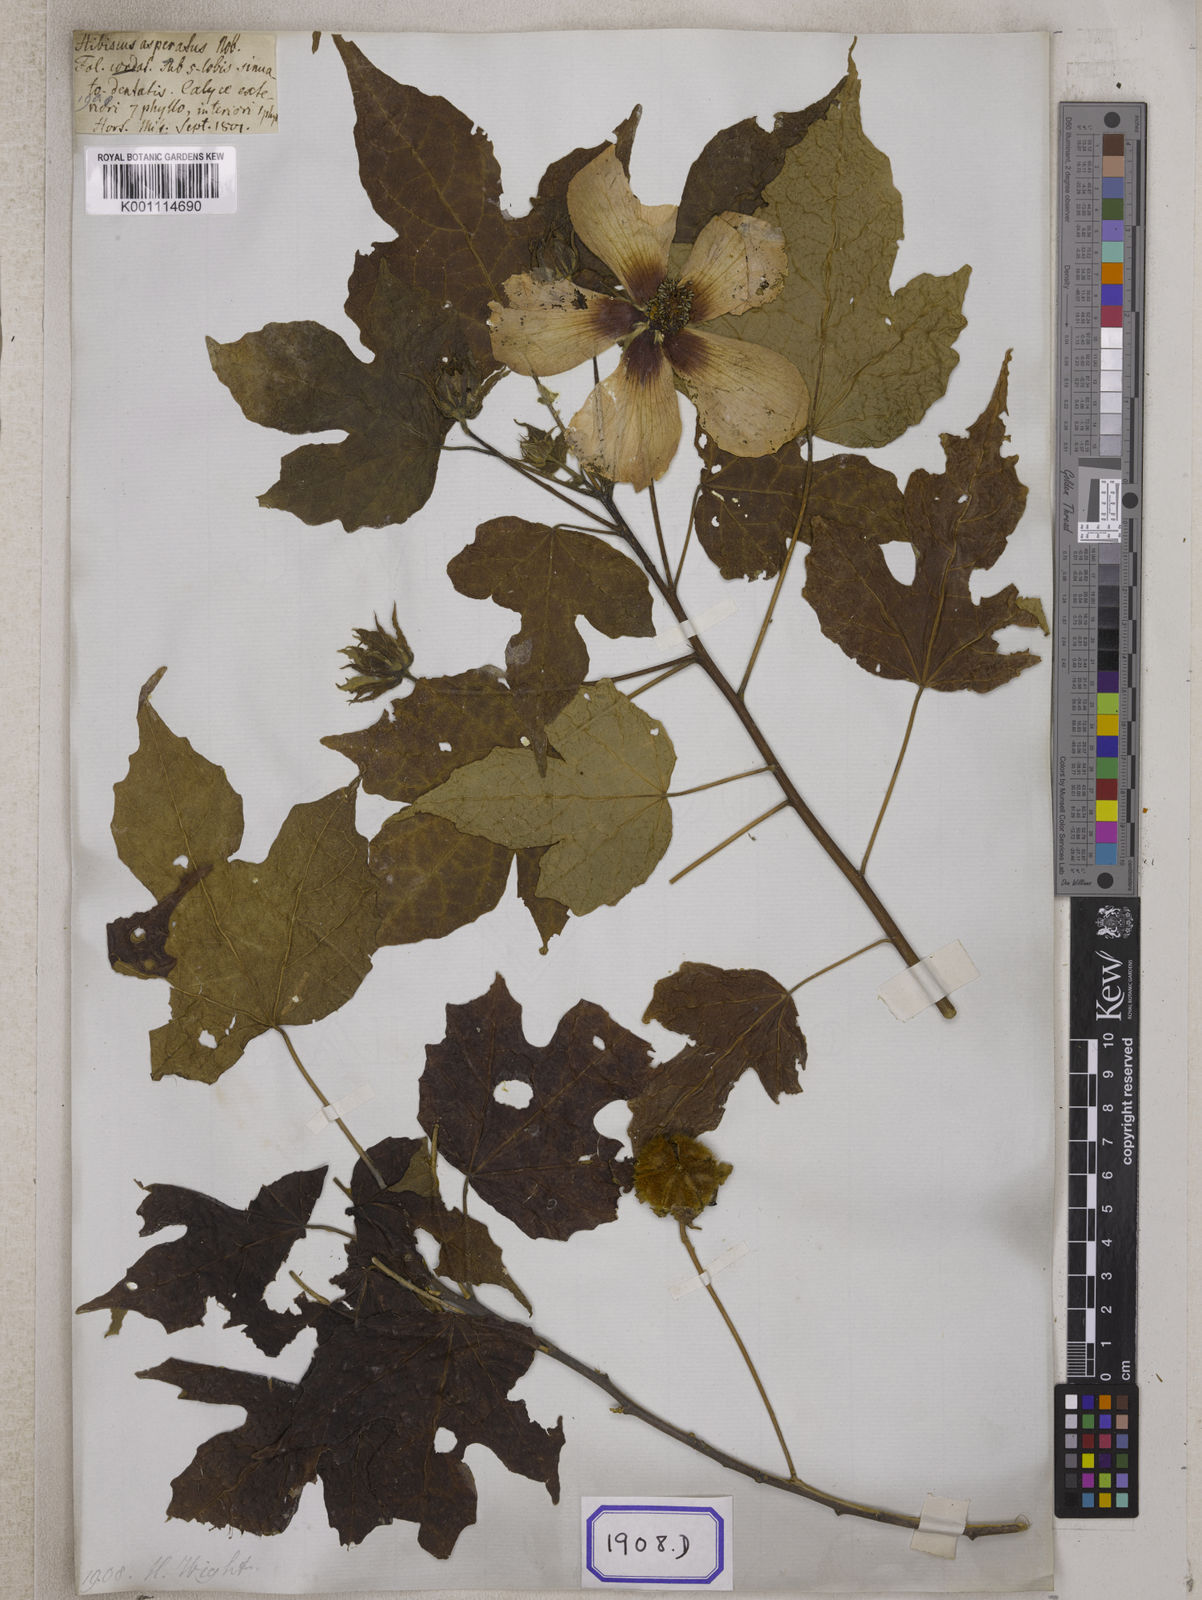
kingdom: Plantae
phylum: Tracheophyta
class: Magnoliopsida
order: Malvales
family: Malvaceae
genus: Hibiscus
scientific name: Hibiscus
